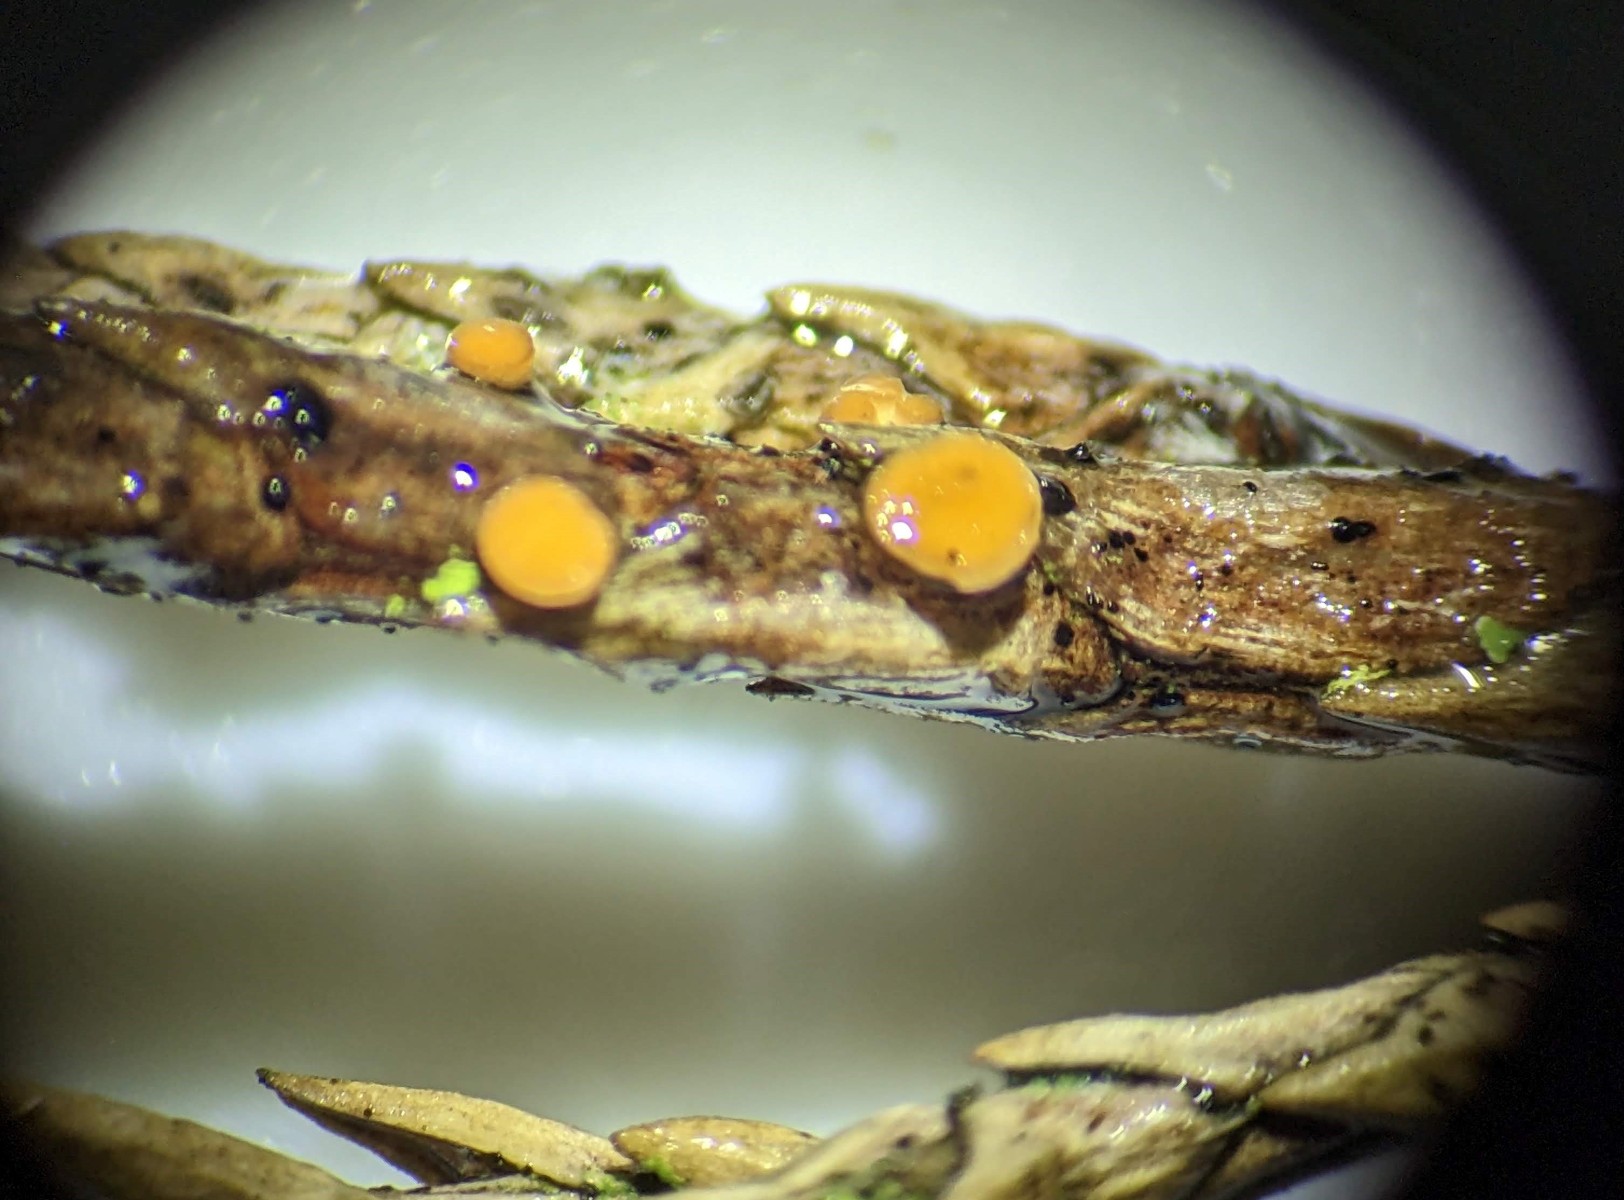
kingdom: Fungi
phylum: Ascomycota
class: Pezizomycetes
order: Pezizales
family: Sarcoscyphaceae
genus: Pithya
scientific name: Pithya cupressina
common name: lille dukatbæger
